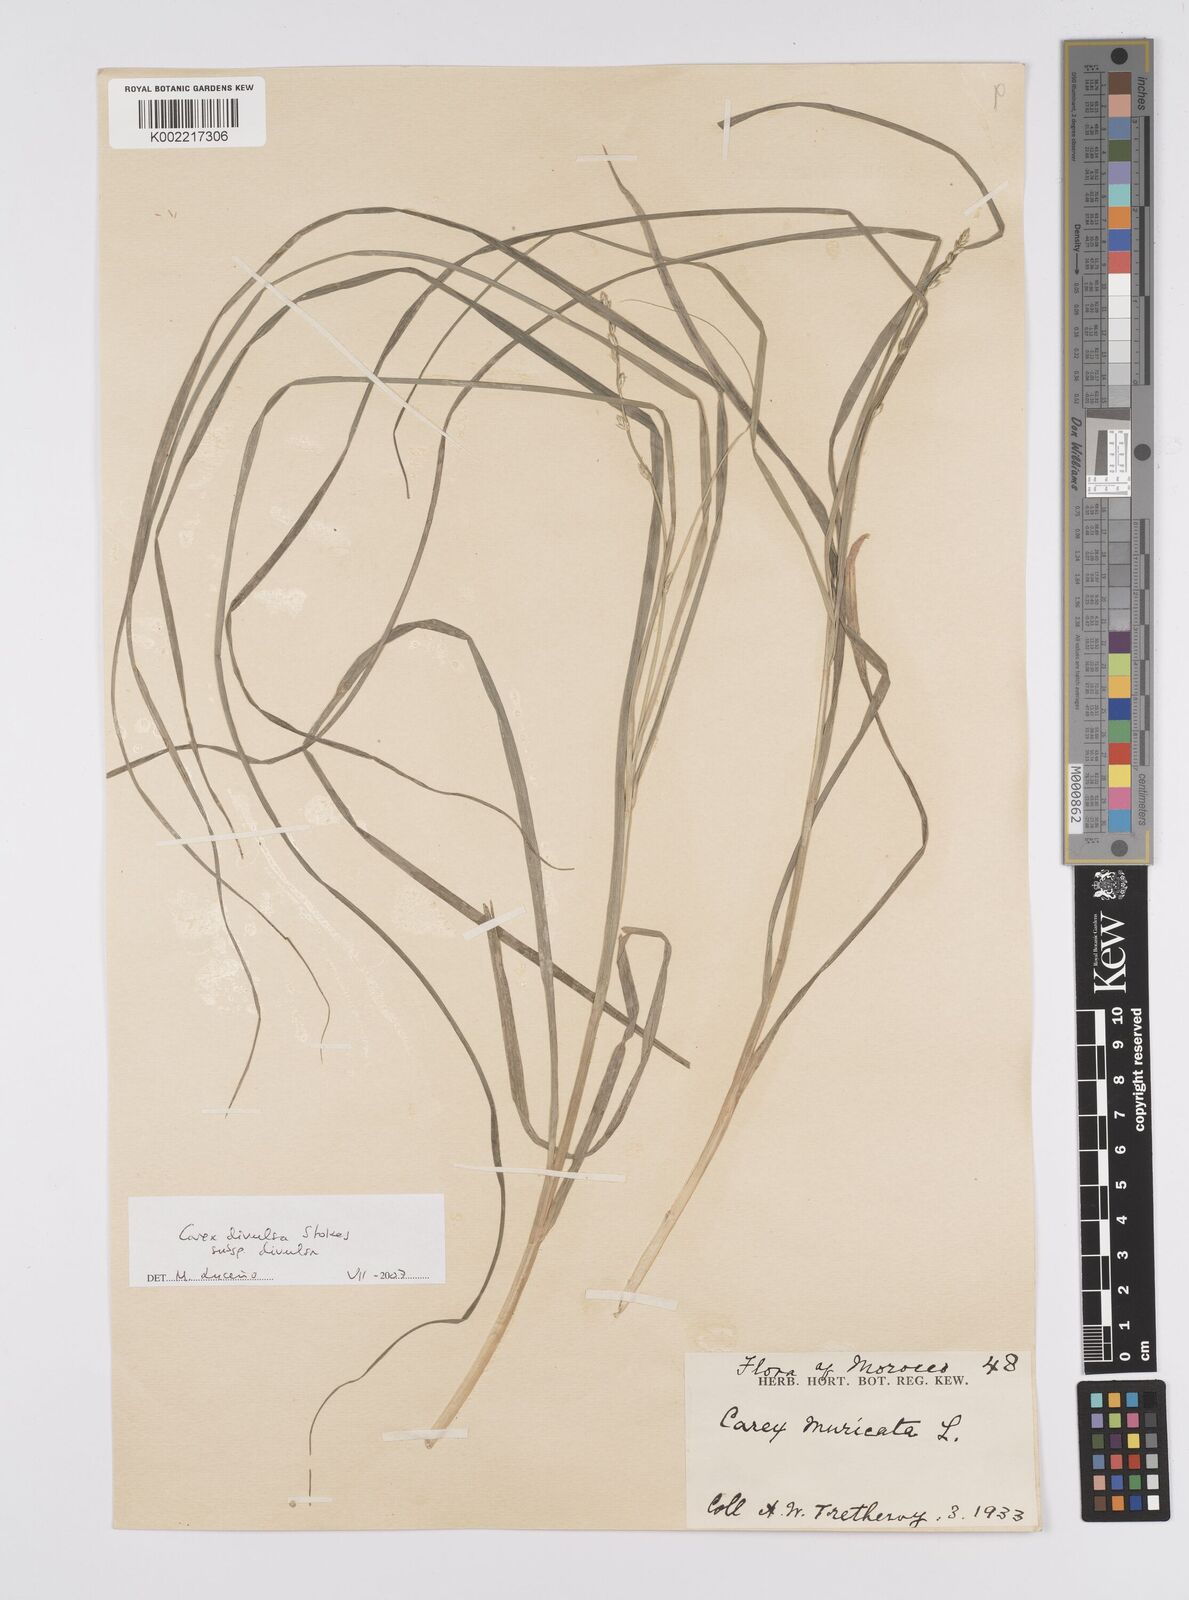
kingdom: Plantae
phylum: Tracheophyta
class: Liliopsida
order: Poales
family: Cyperaceae
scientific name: Cyperaceae
